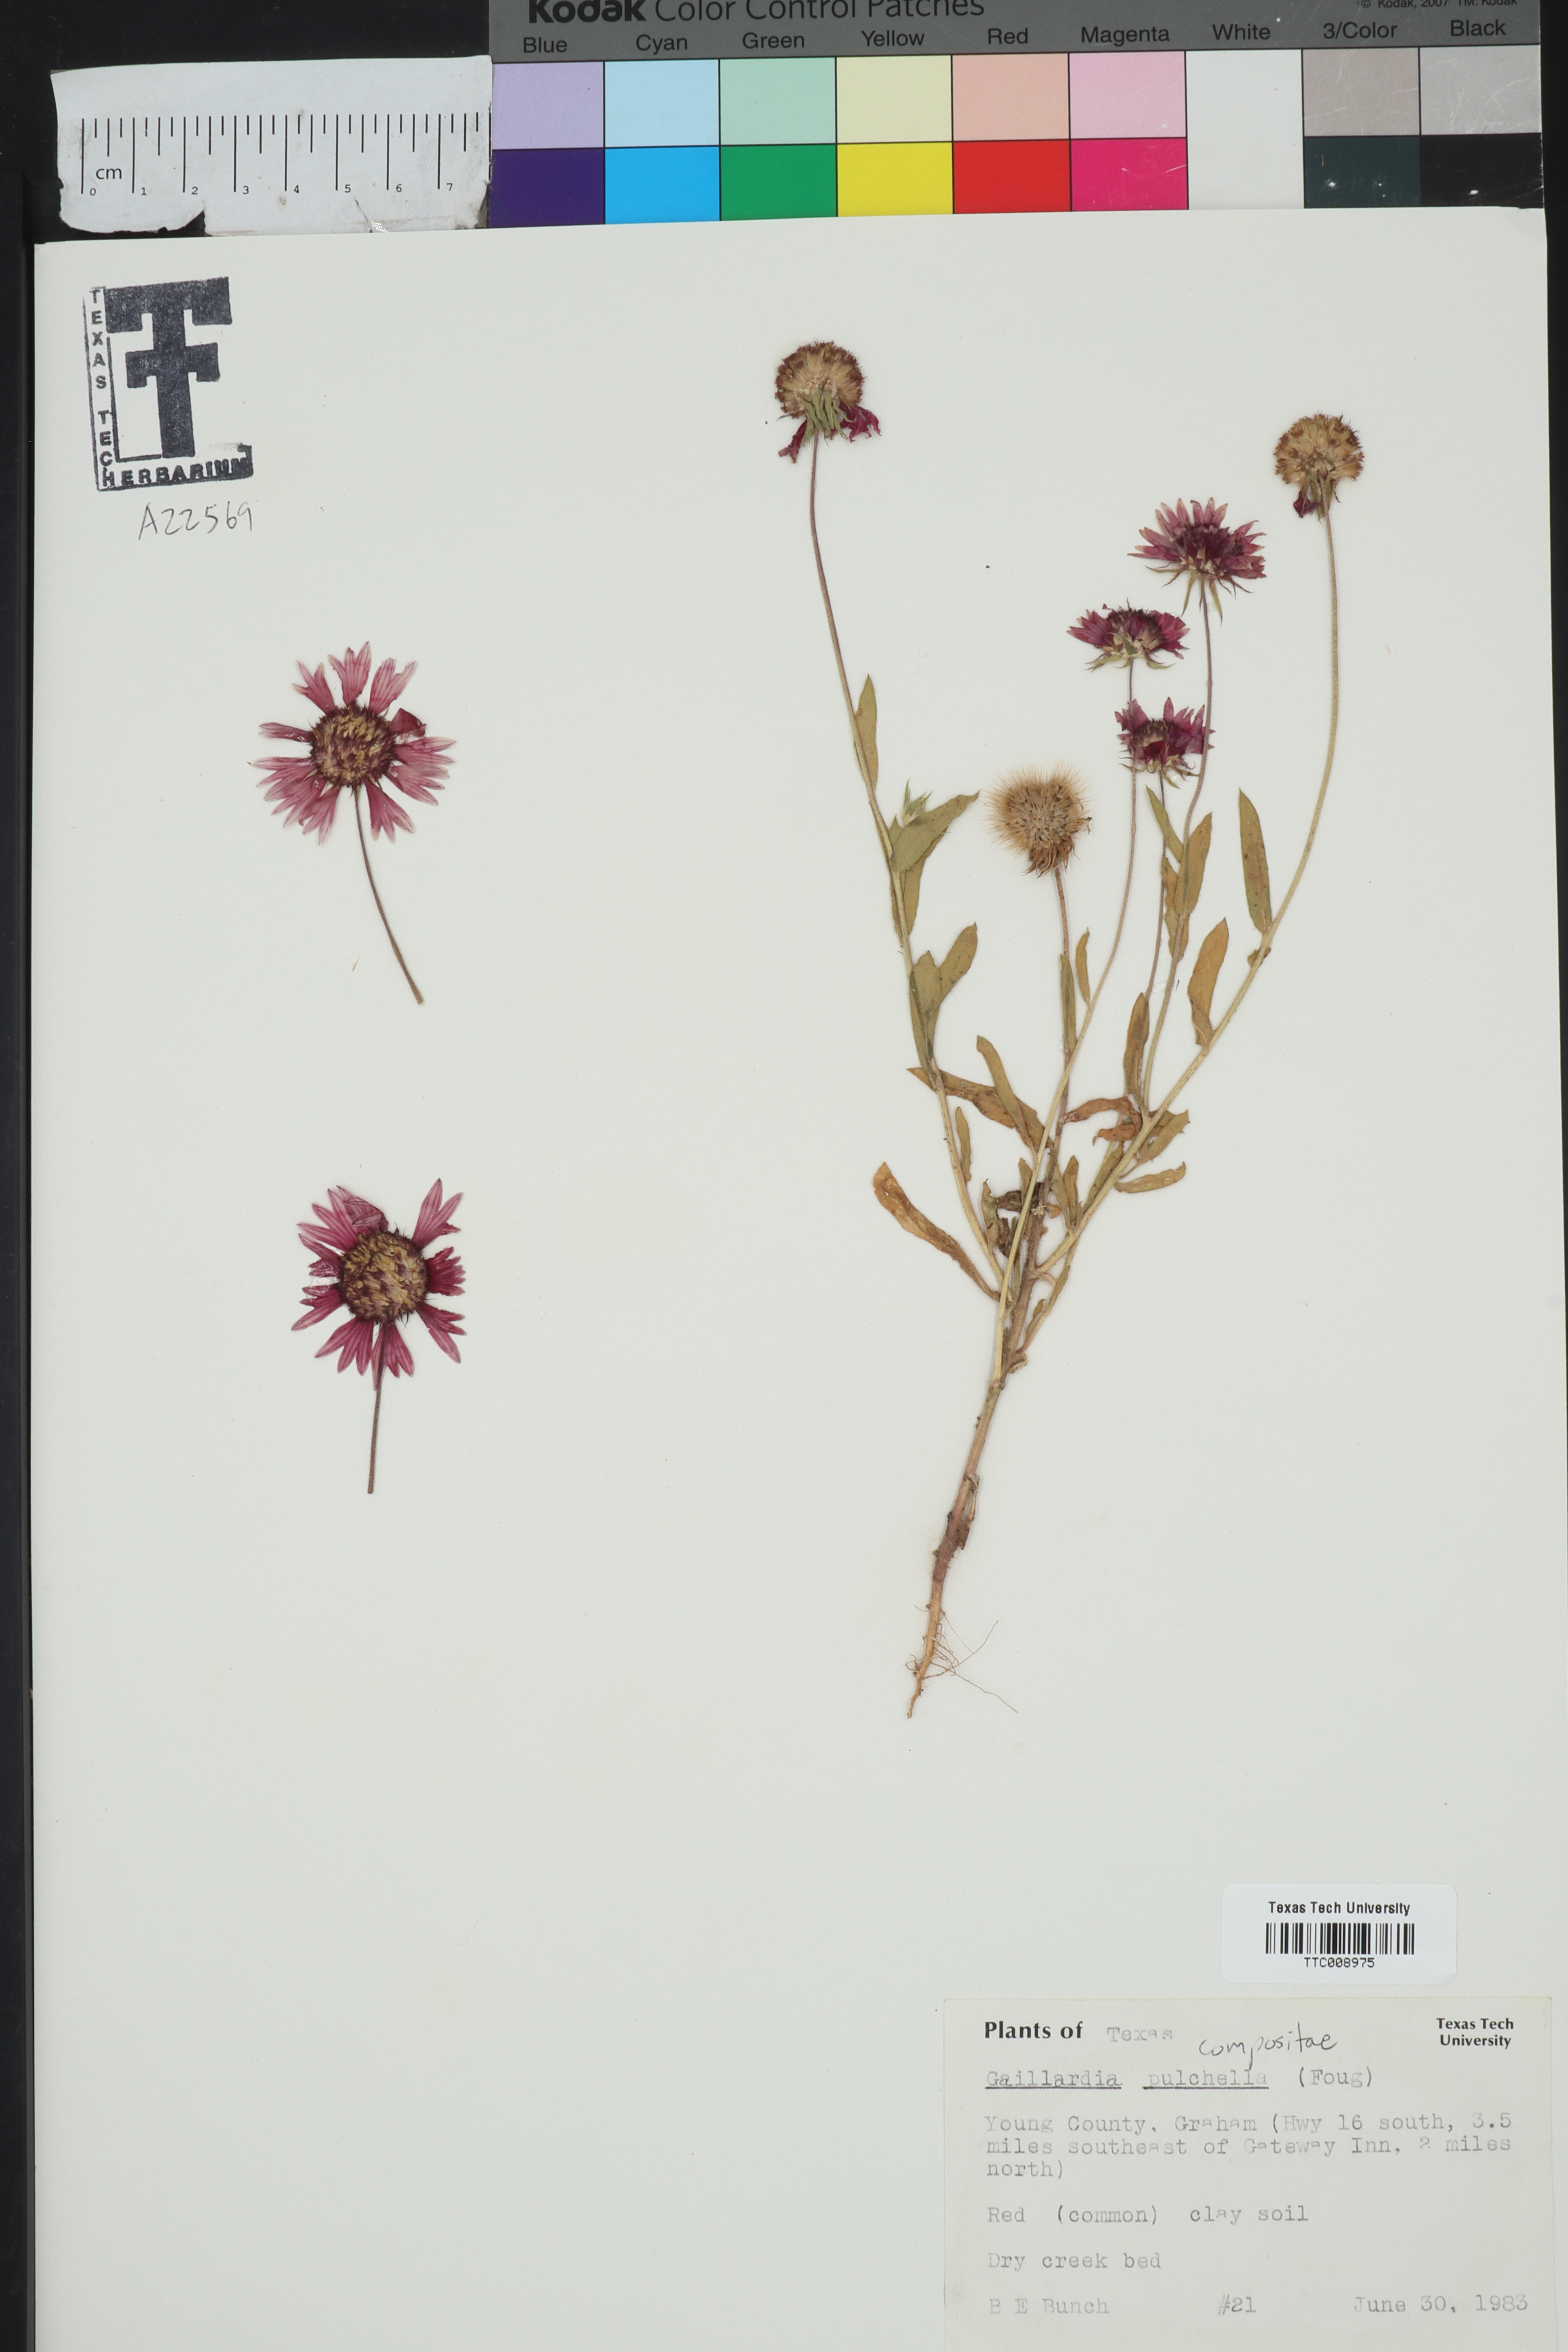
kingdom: Plantae
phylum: Tracheophyta
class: Magnoliopsida
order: Asterales
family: Asteraceae
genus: Gaillardia
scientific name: Gaillardia pulchella
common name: Firewheel
